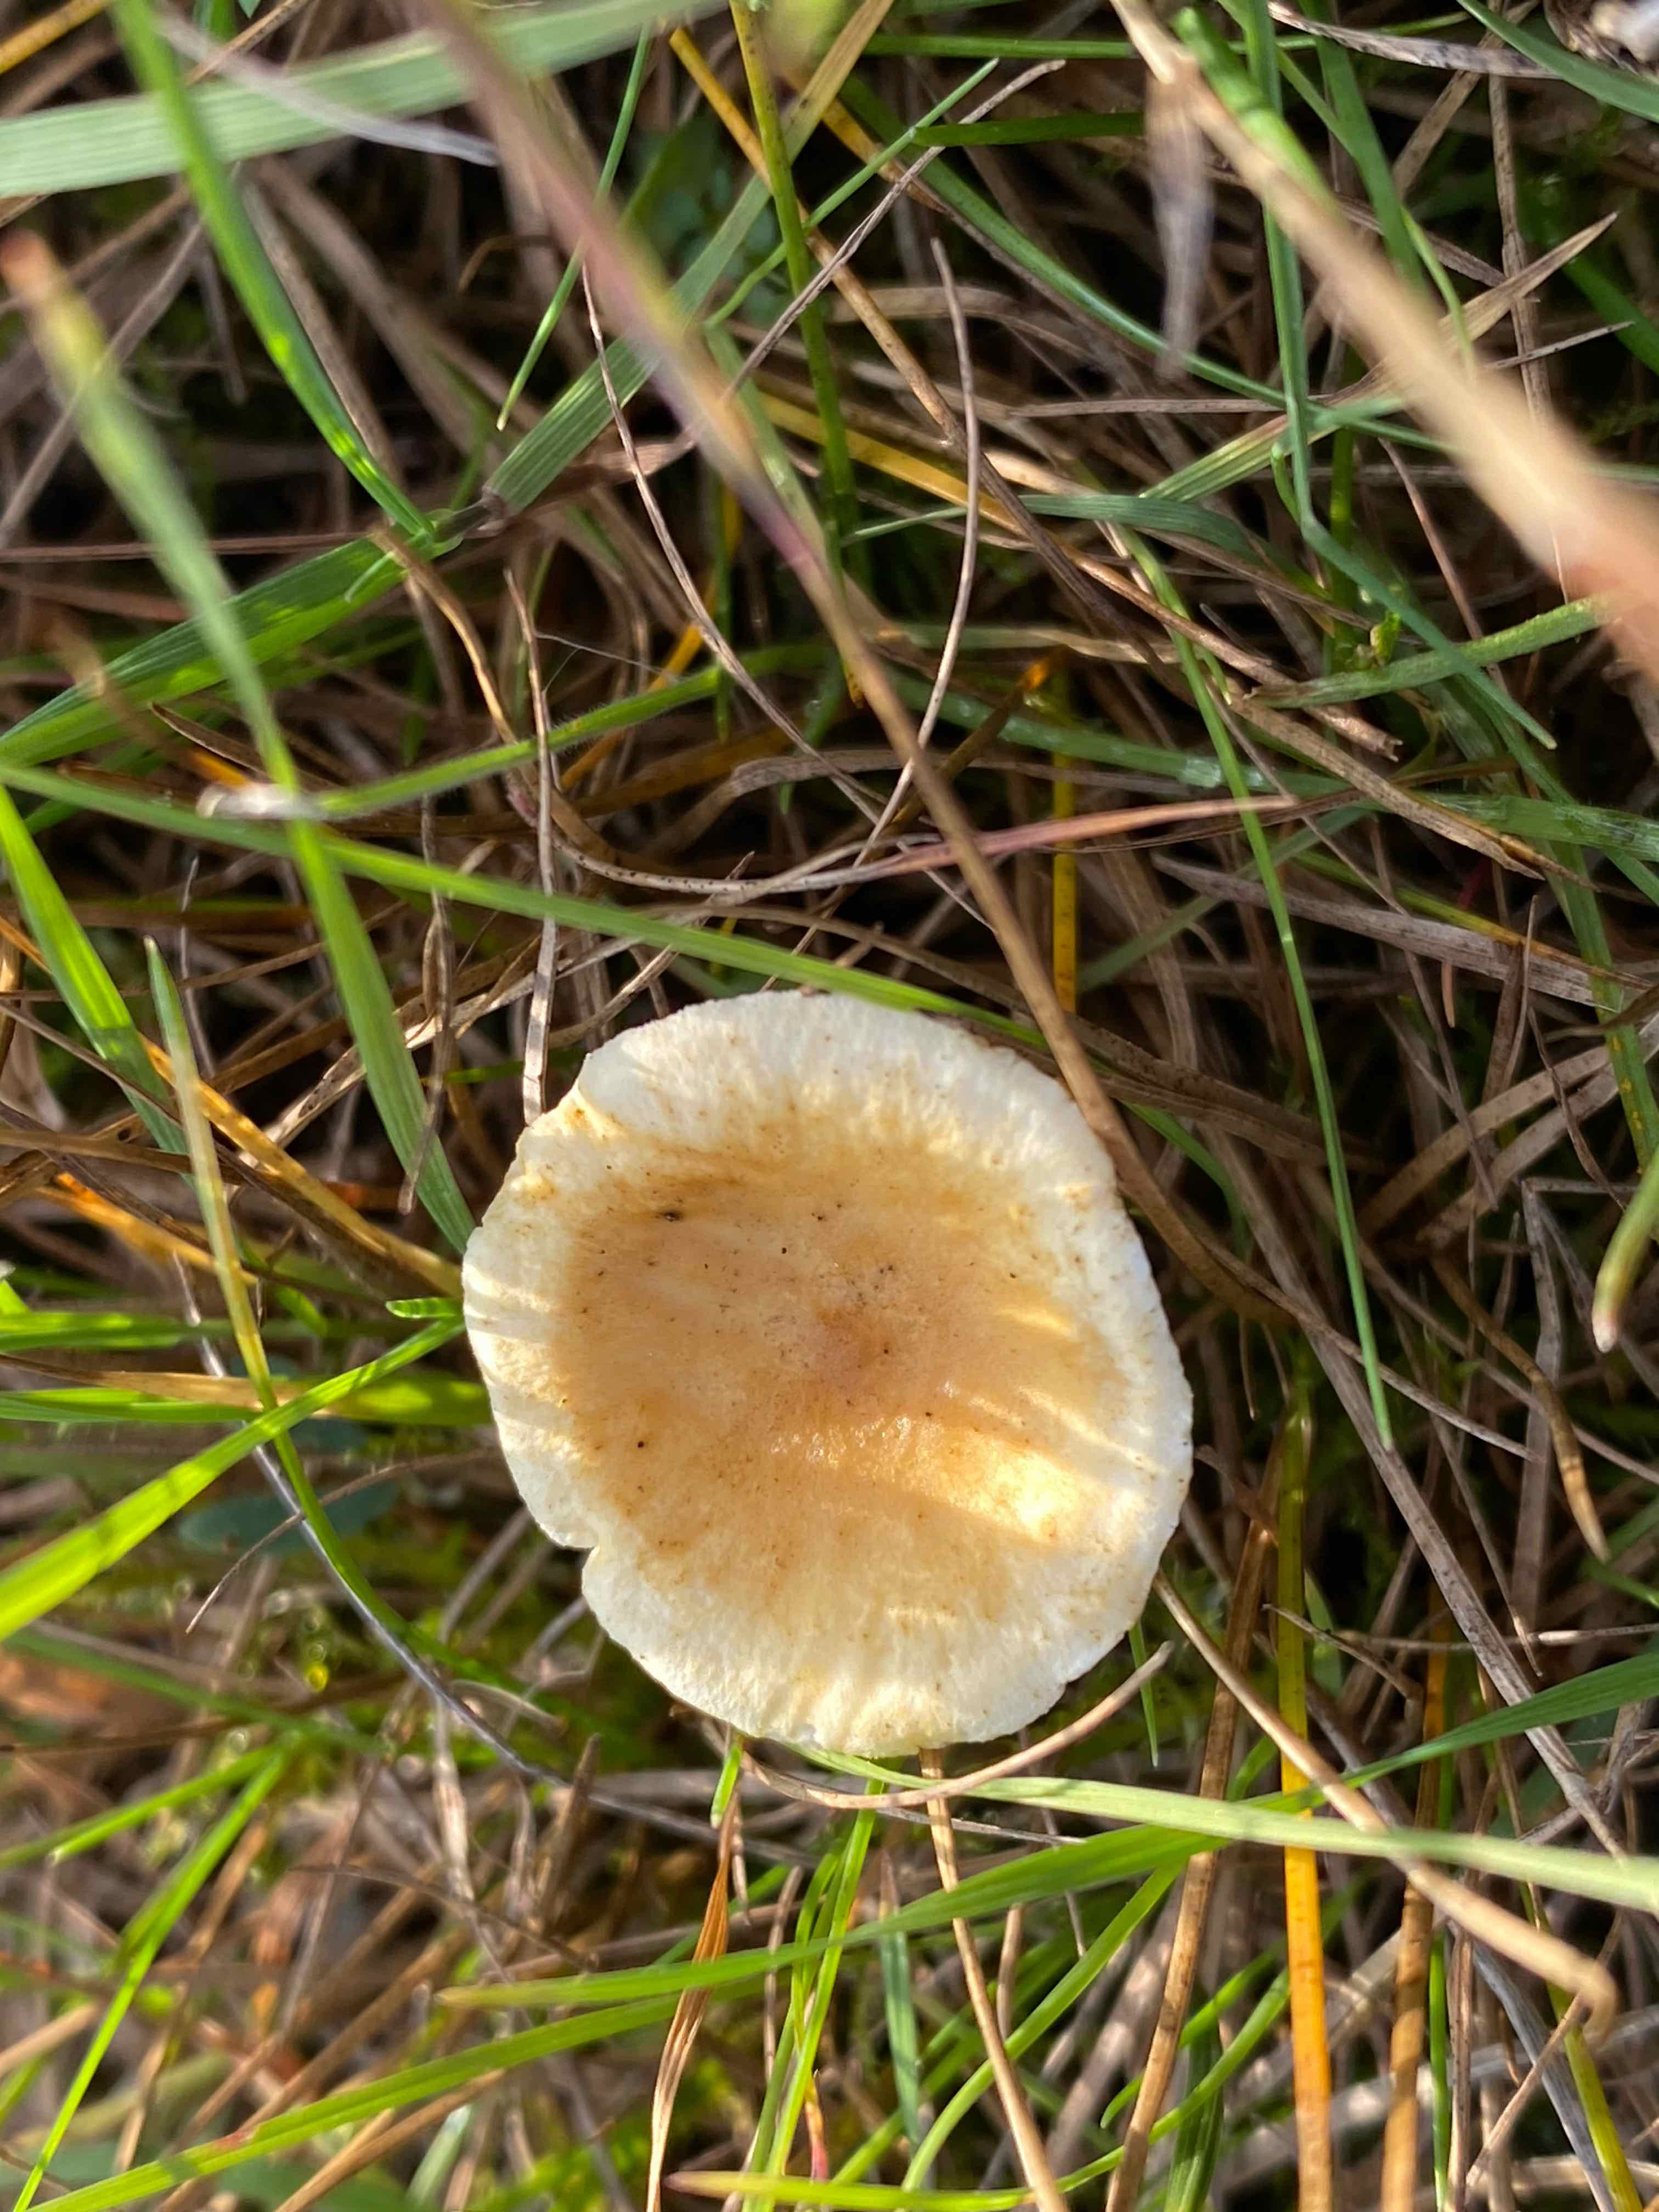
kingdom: Fungi
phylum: Basidiomycota
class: Agaricomycetes
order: Boletales
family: Hygrophoropsidaceae
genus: Hygrophoropsis
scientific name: Hygrophoropsis pallida
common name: bleg orangekantarel
